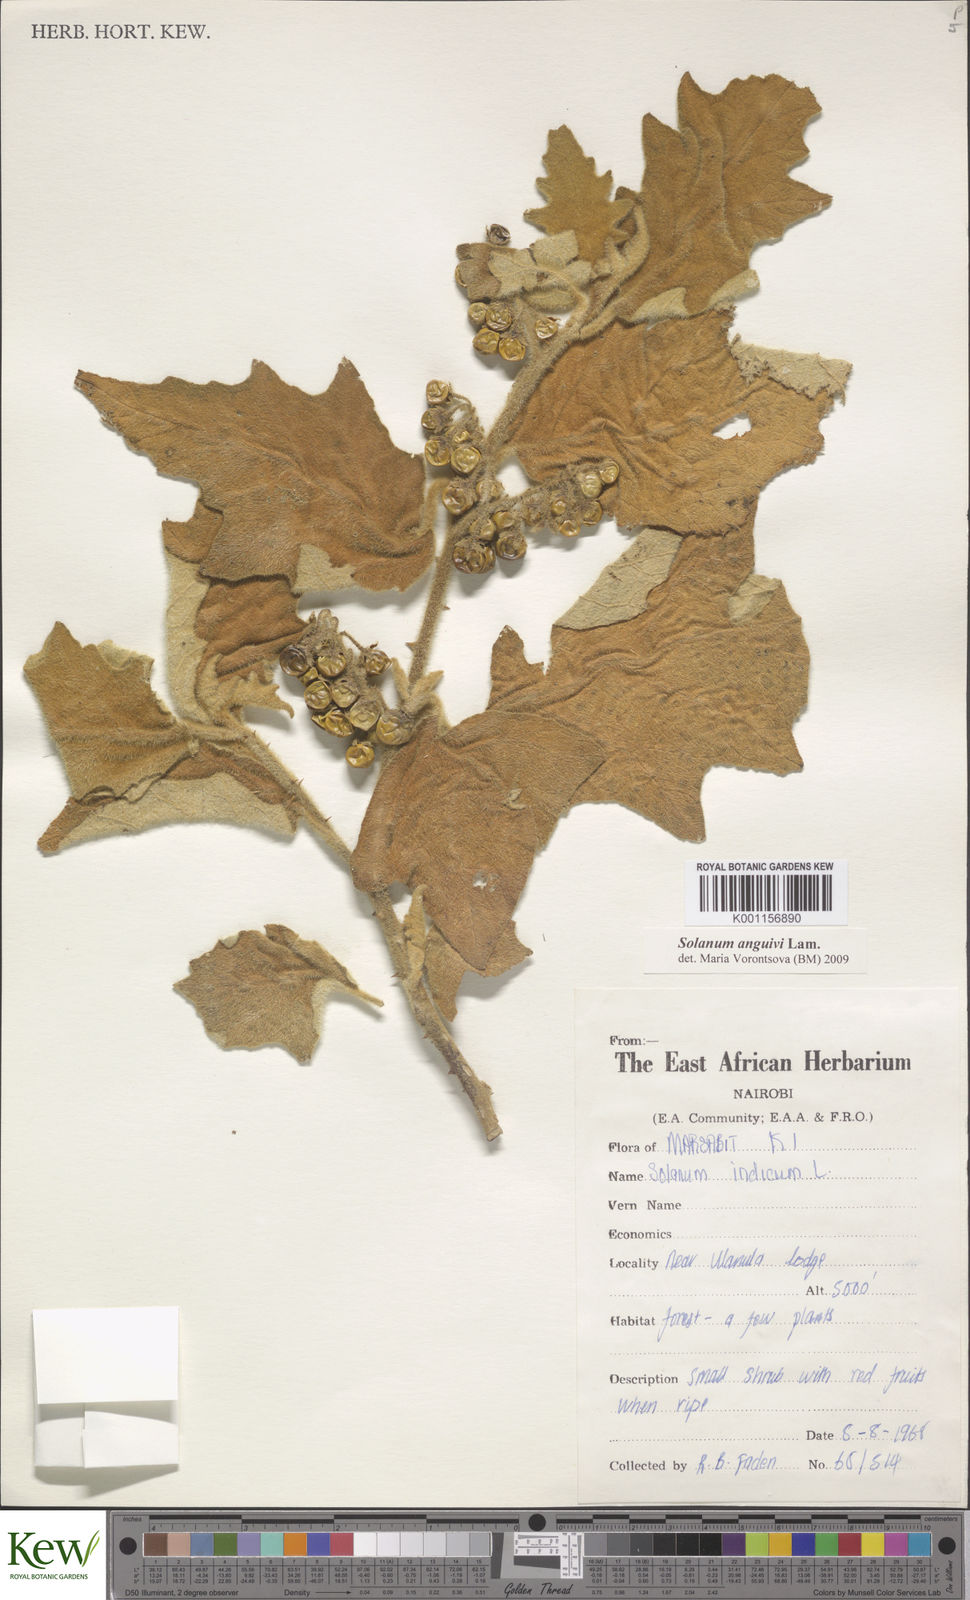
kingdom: Plantae
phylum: Tracheophyta
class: Magnoliopsida
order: Solanales
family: Solanaceae
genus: Solanum
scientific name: Solanum anguivi
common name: Forest bitterberry
